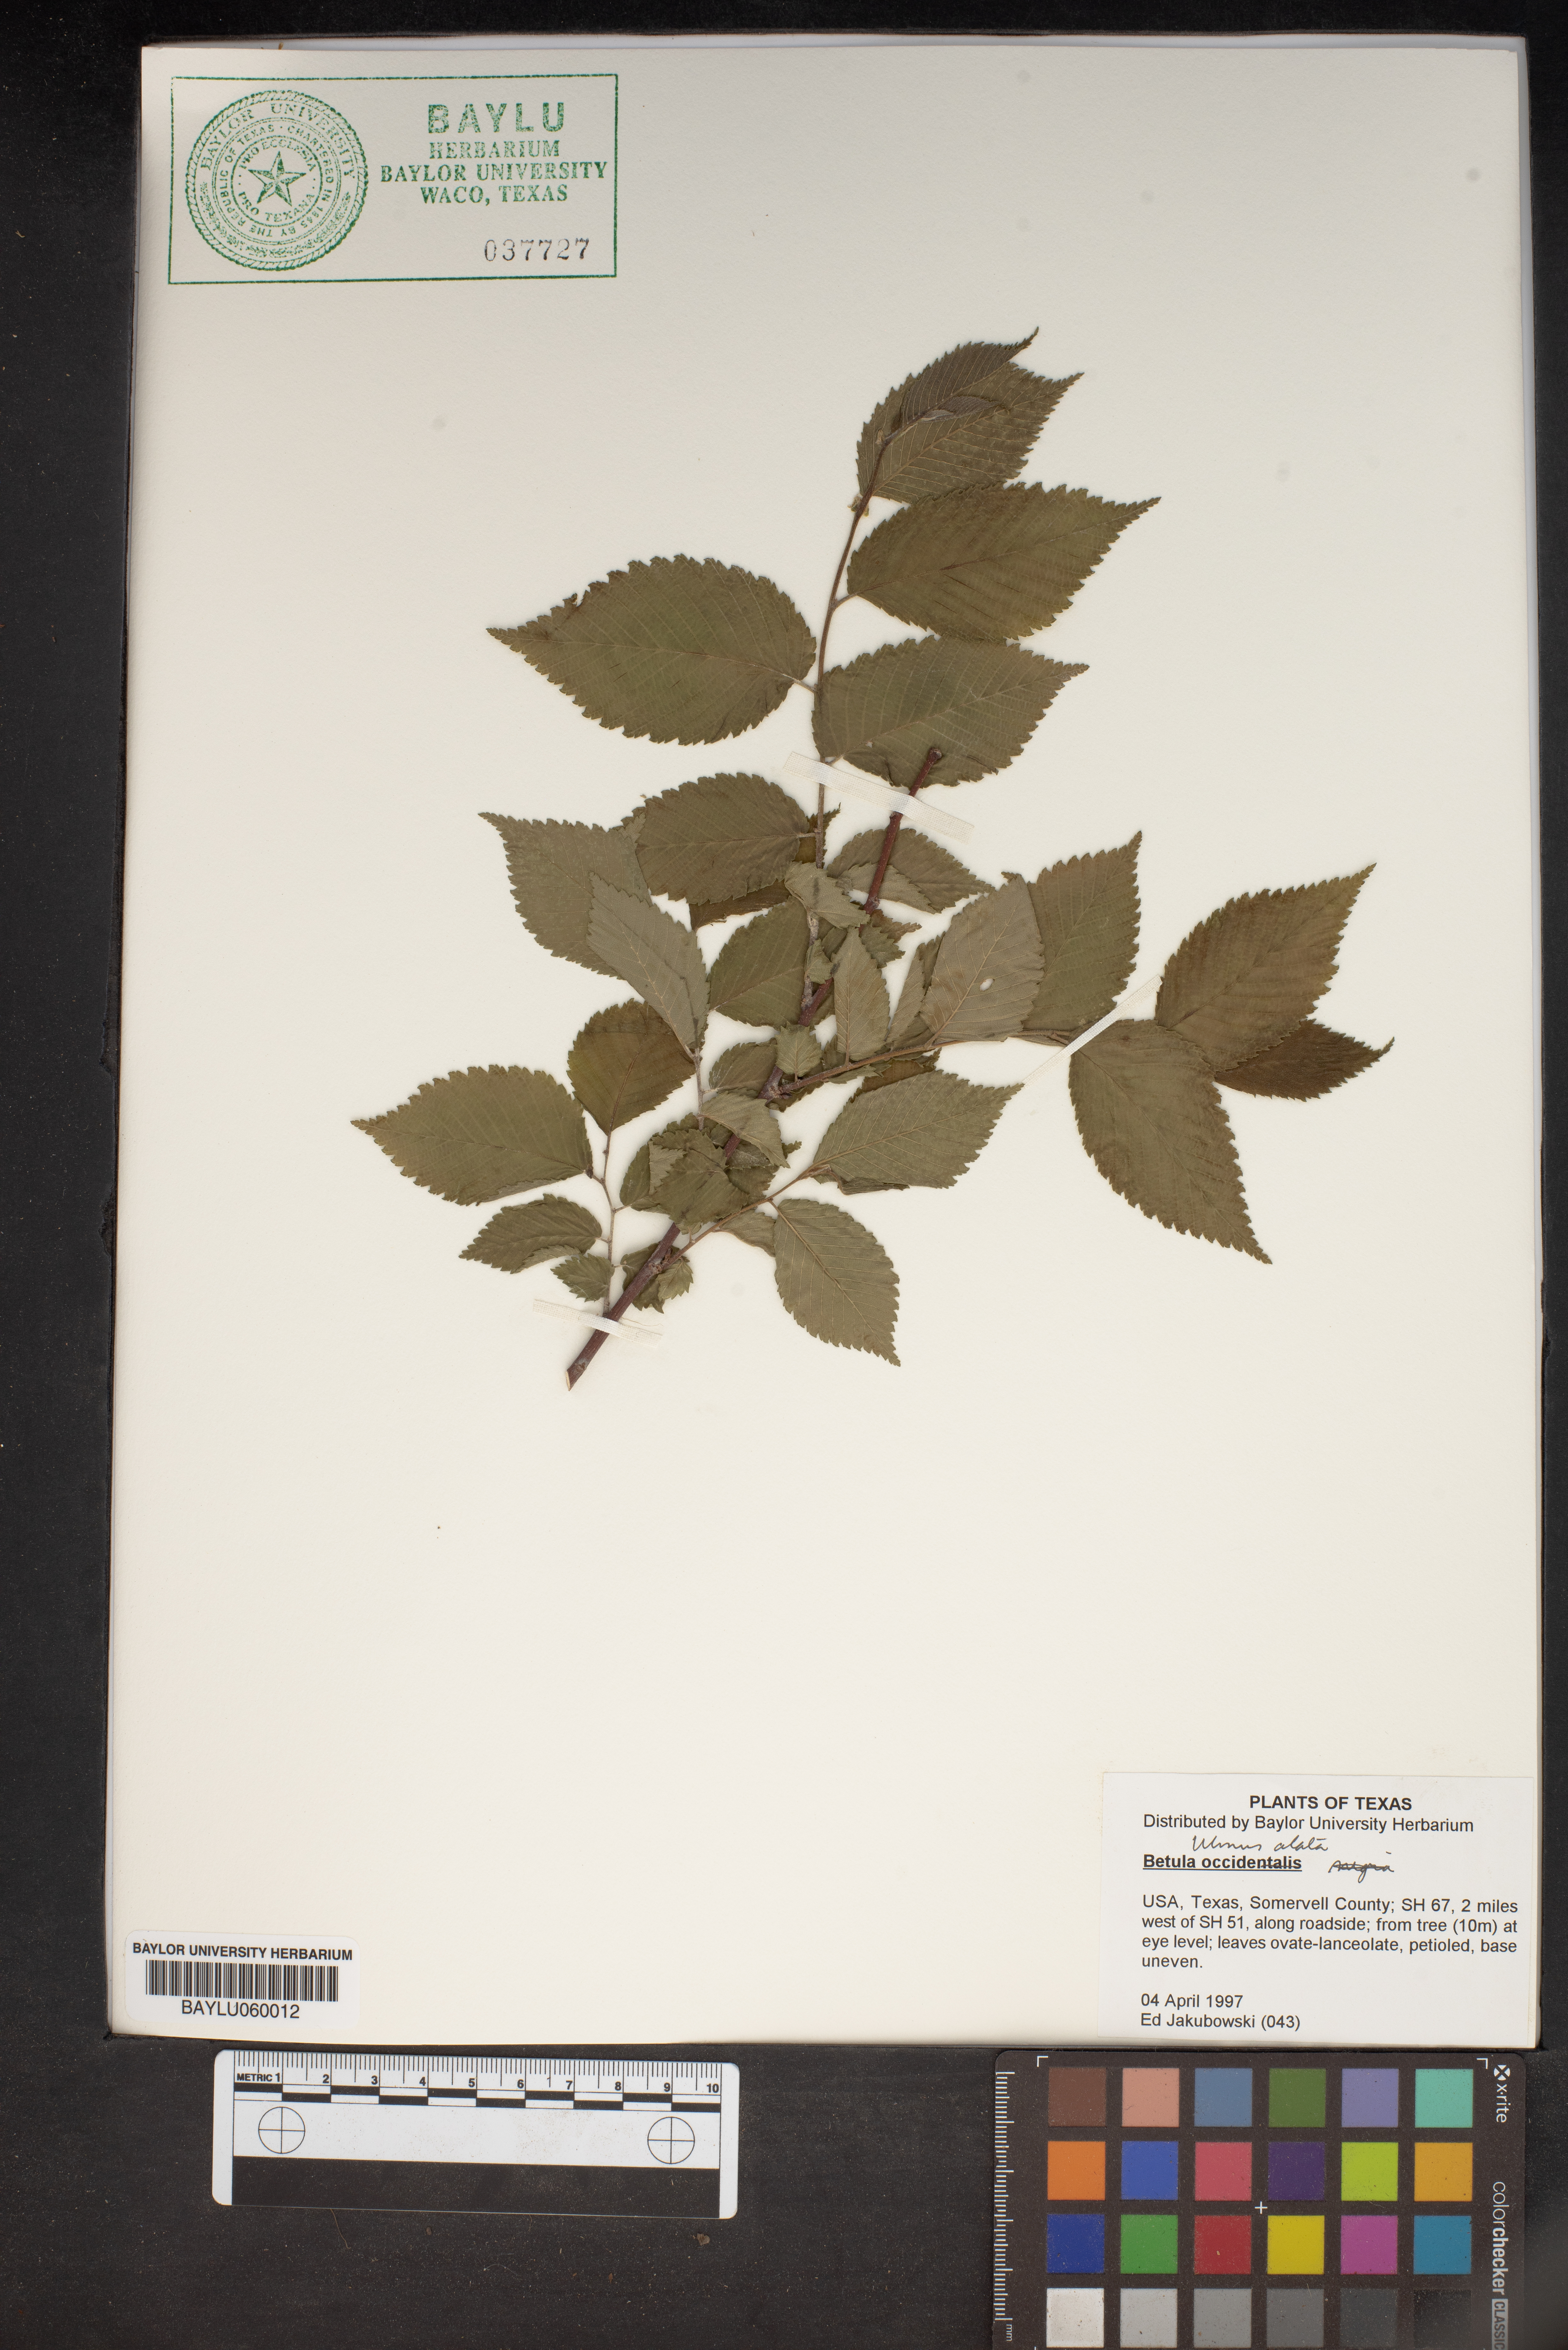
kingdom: Plantae
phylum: Tracheophyta
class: Magnoliopsida
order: Fagales
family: Betulaceae
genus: Betula
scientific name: Betula occidentalis
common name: River birch
